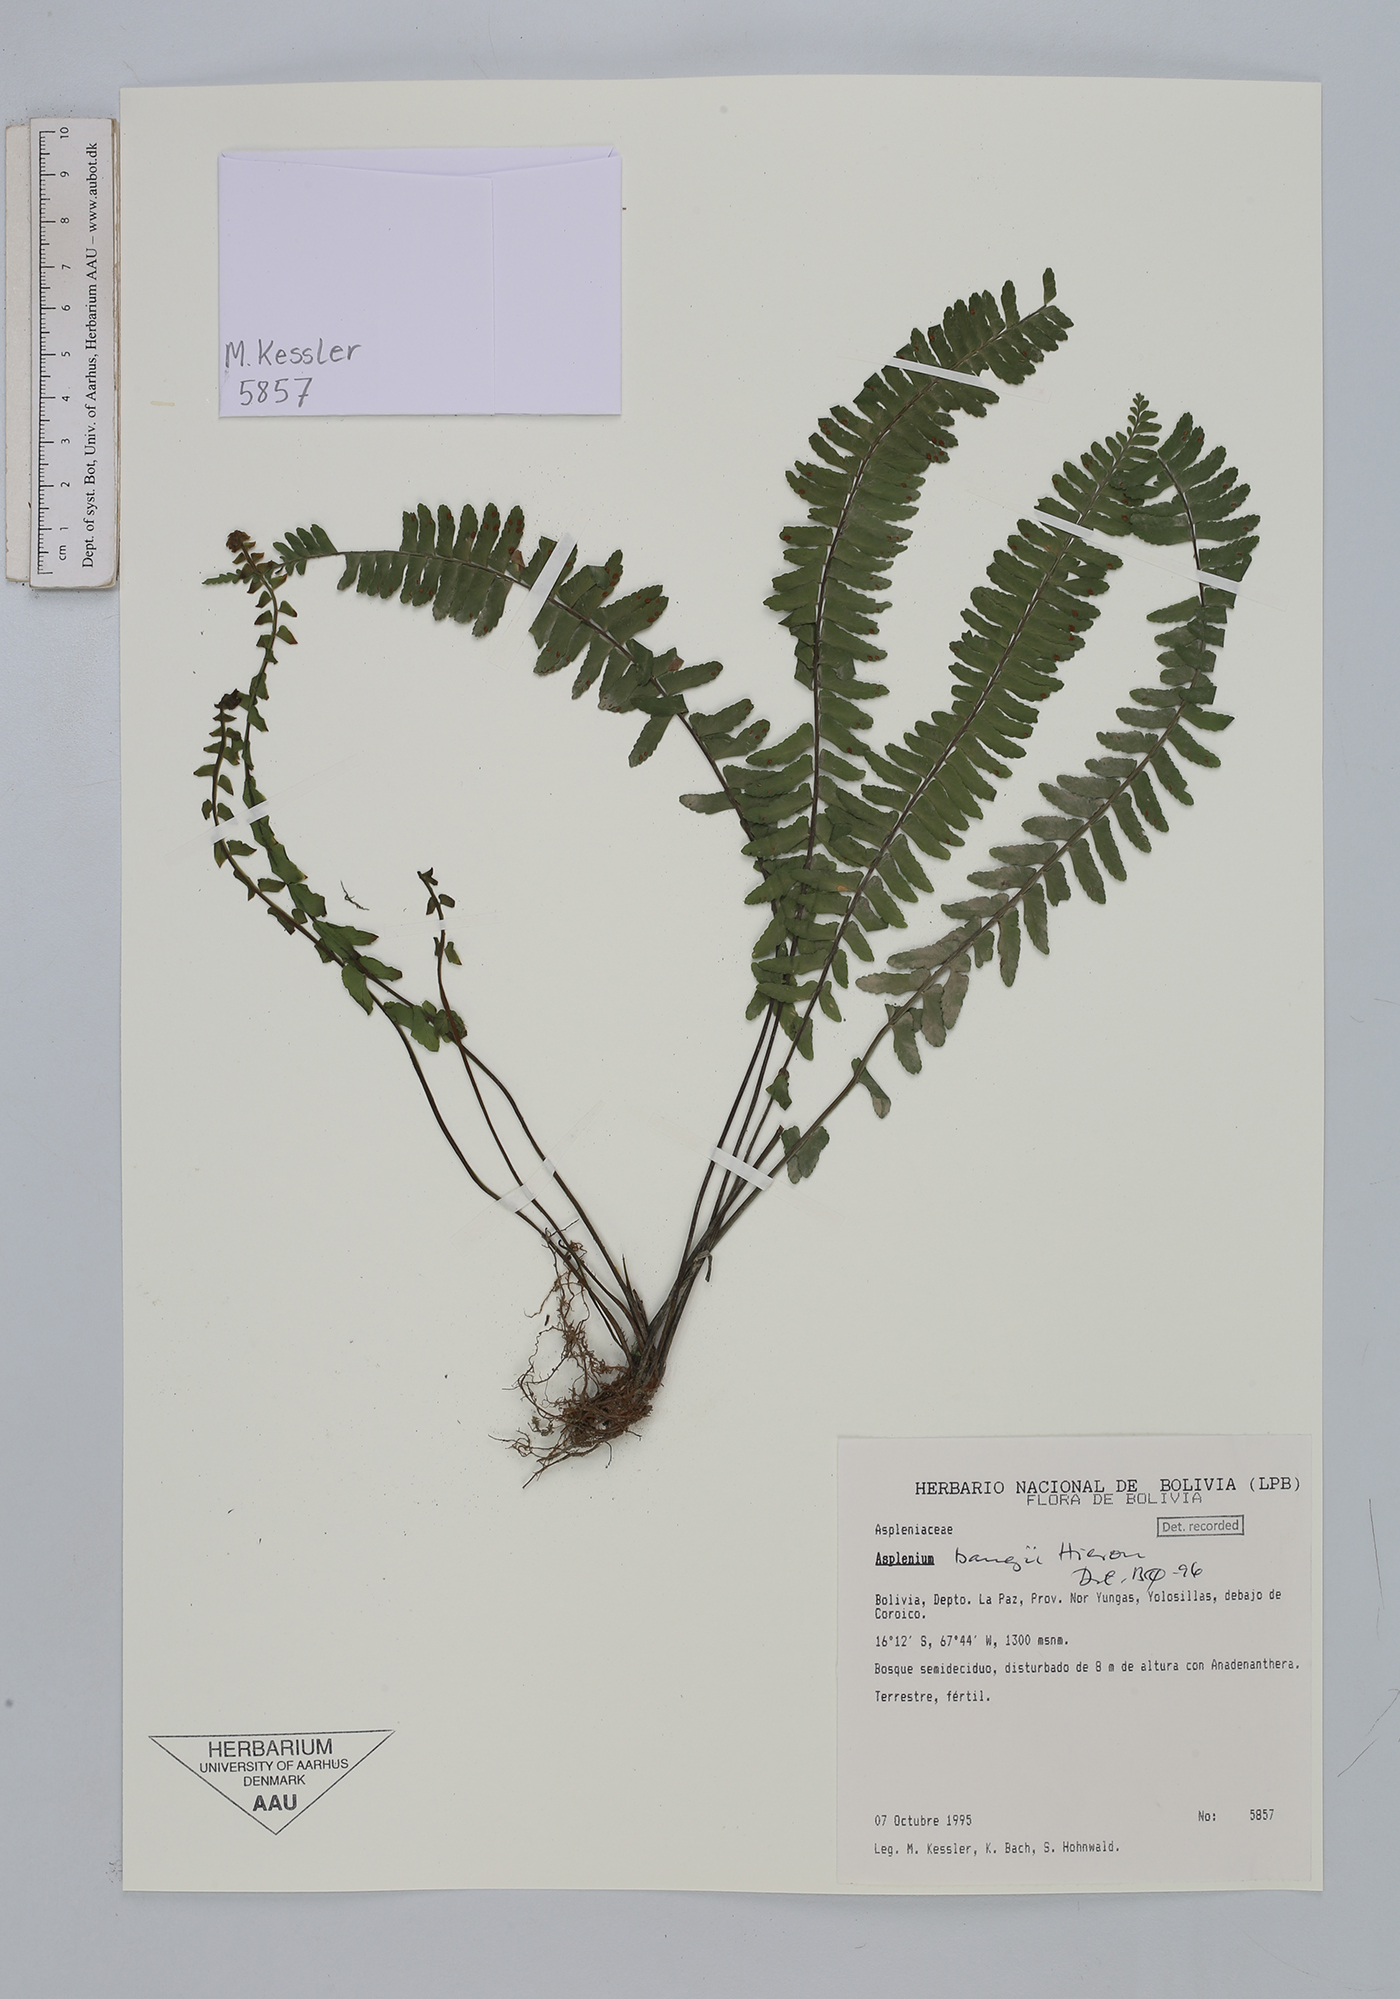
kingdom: Plantae
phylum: Tracheophyta
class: Polypodiopsida
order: Polypodiales
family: Aspleniaceae
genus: Asplenium
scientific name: Asplenium bangii
